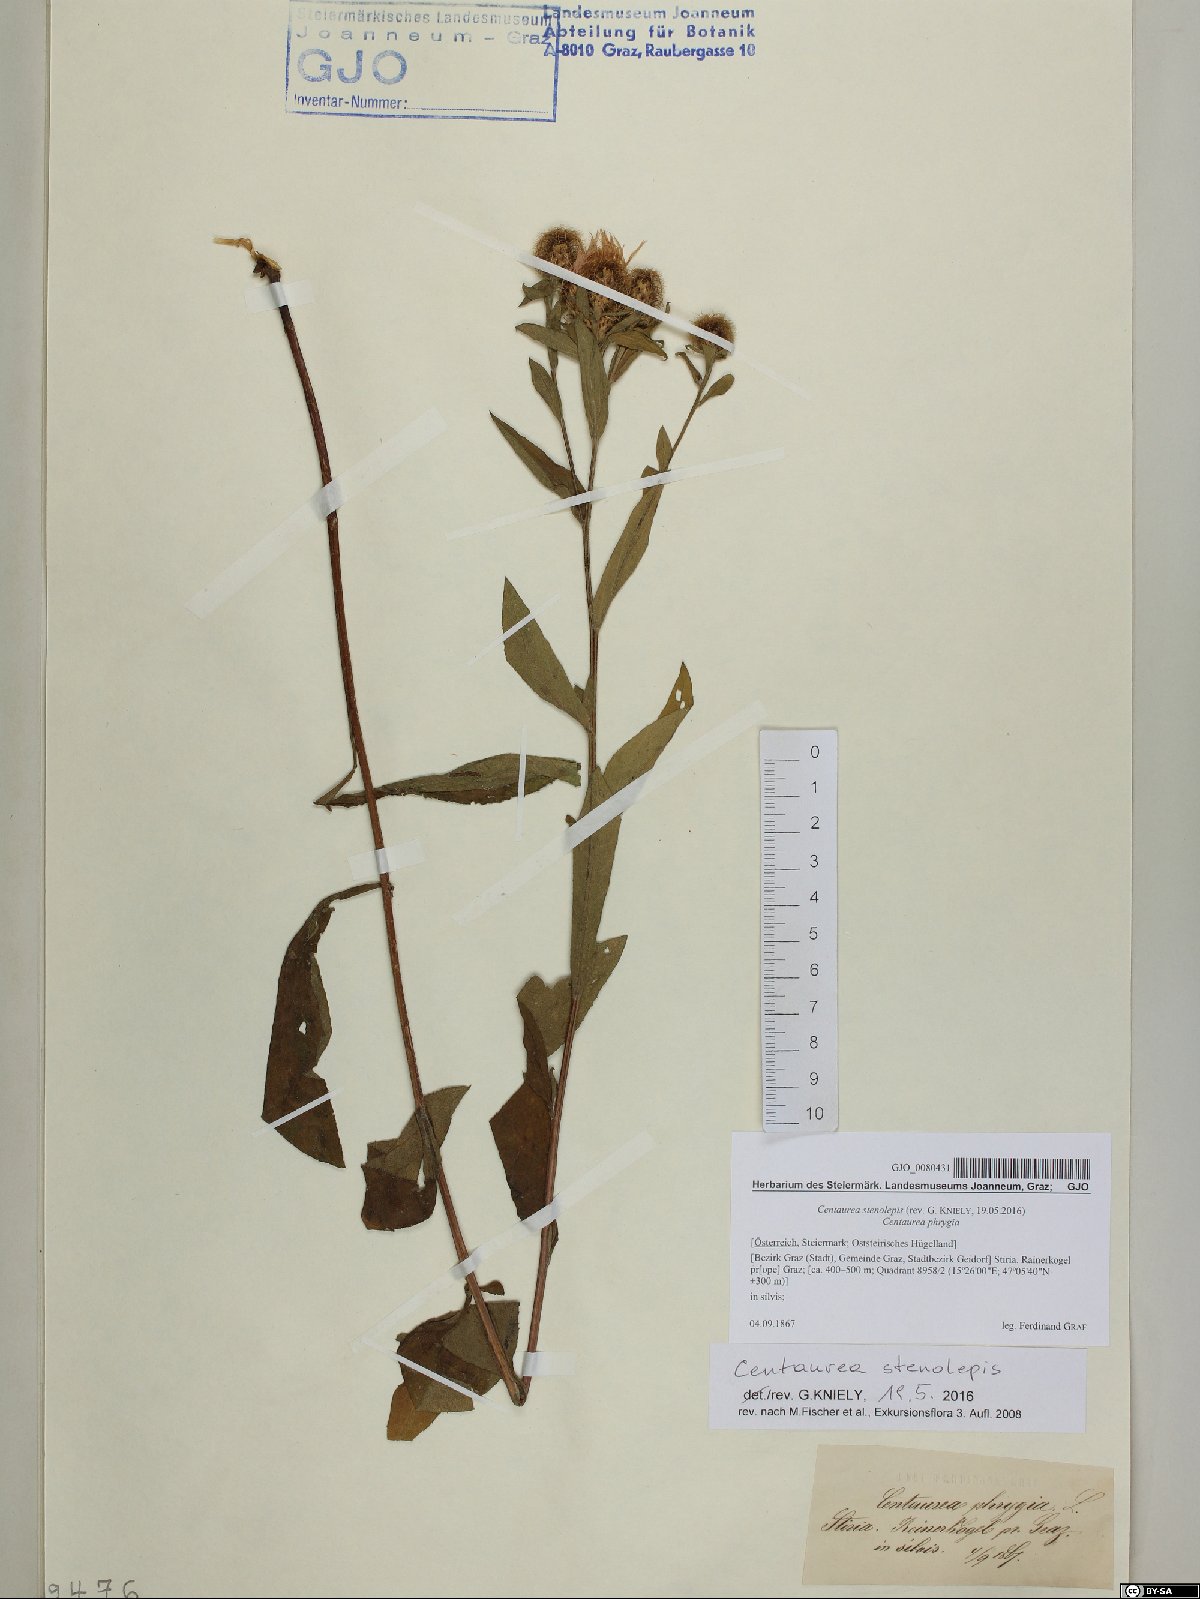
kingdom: Plantae
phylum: Tracheophyta
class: Magnoliopsida
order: Asterales
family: Asteraceae
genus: Centaurea
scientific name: Centaurea stenolepis
